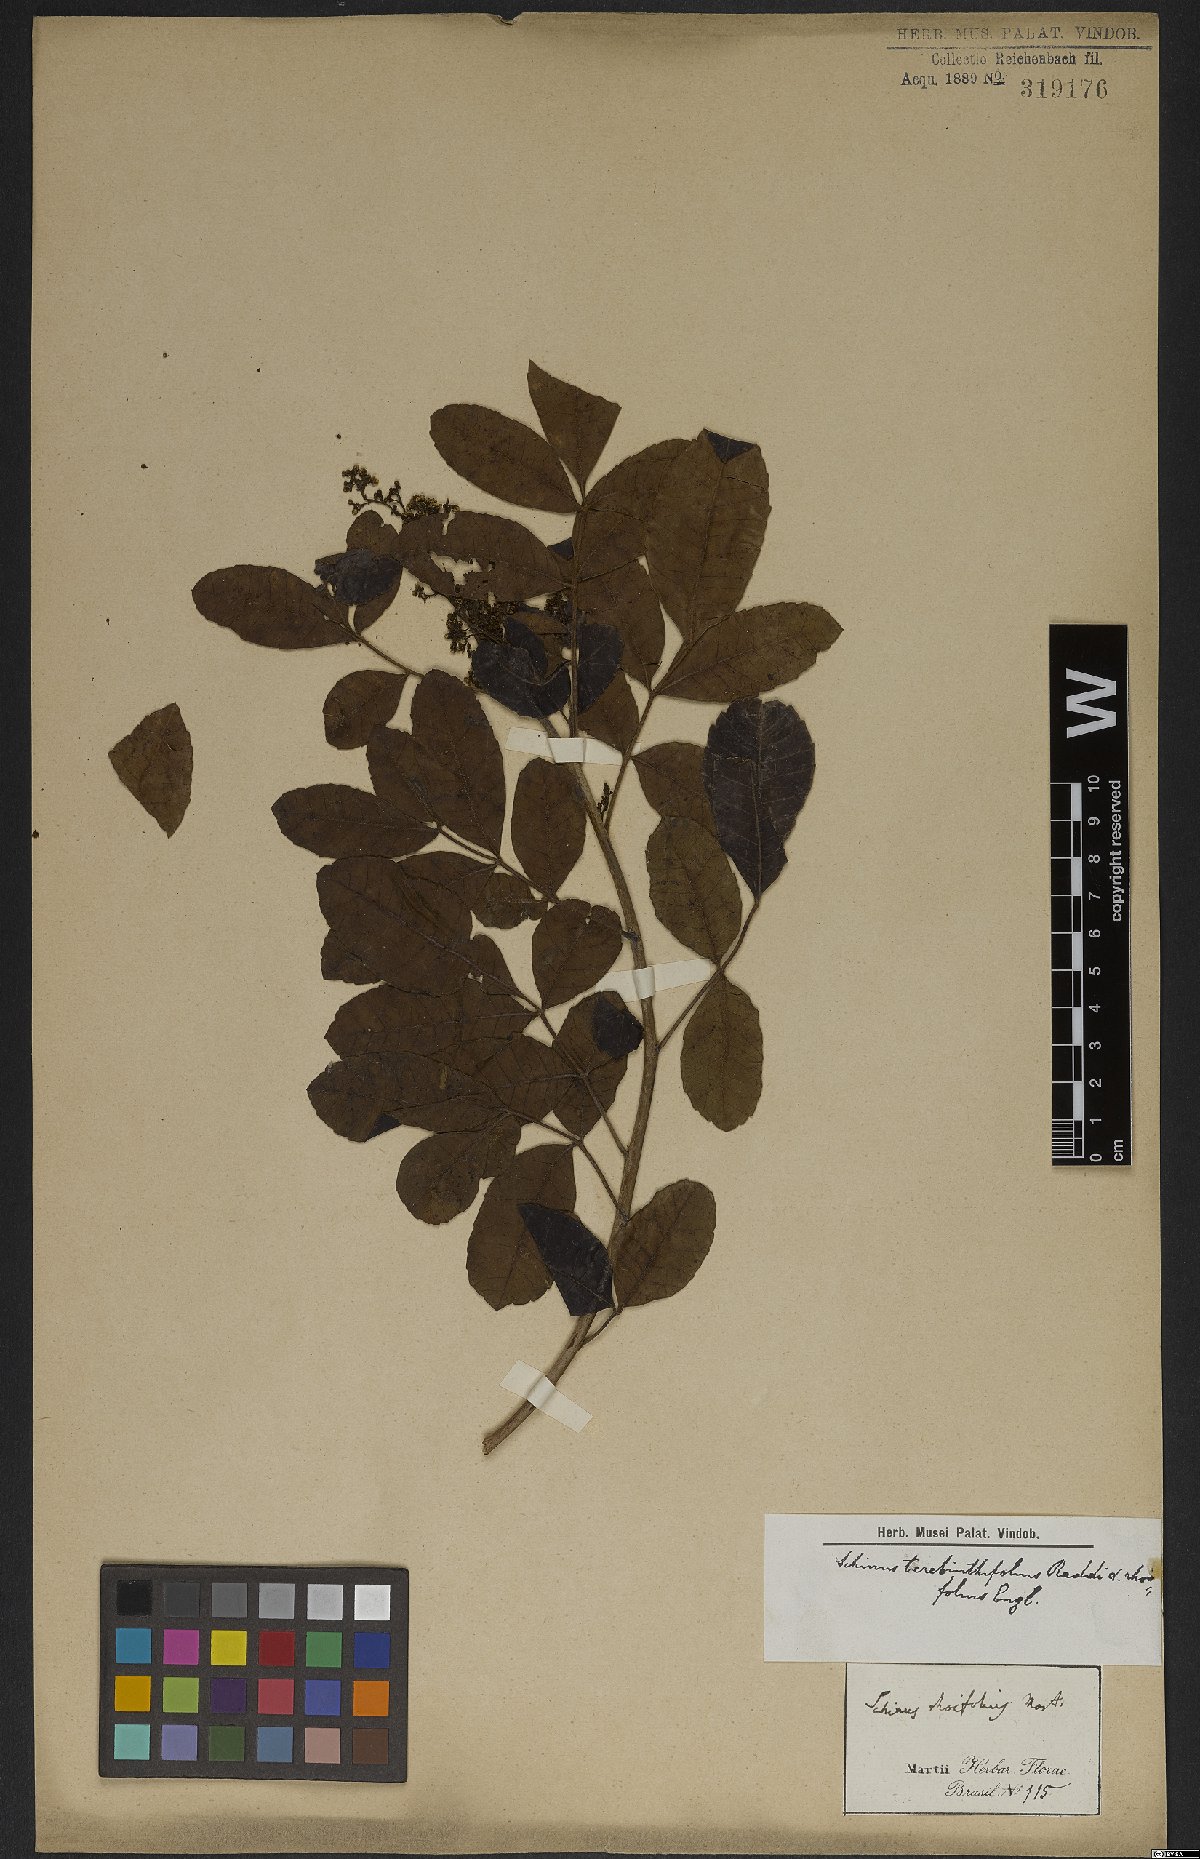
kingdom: Plantae
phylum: Tracheophyta
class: Magnoliopsida
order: Sapindales
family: Anacardiaceae
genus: Schinus
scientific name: Schinus terebinthifolia
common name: Brazilian peppertree
